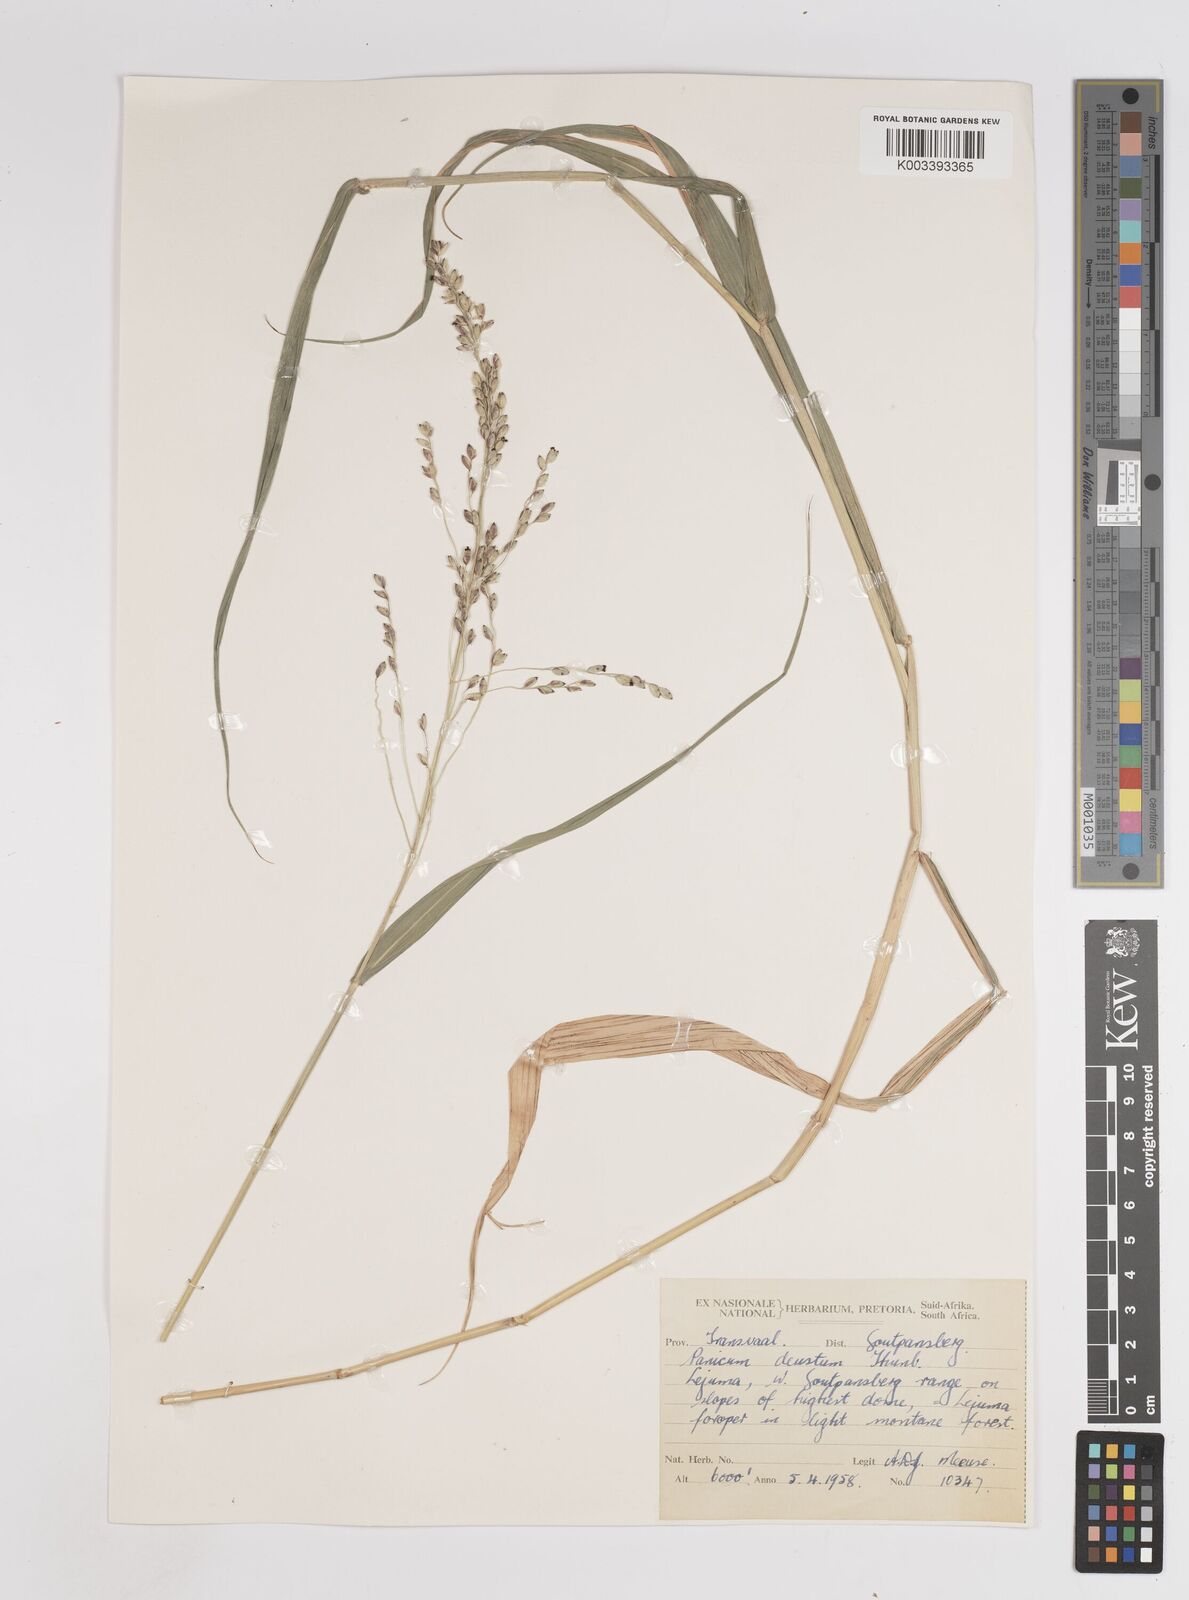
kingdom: Plantae
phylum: Tracheophyta
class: Liliopsida
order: Poales
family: Poaceae
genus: Panicum
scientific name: Panicum deustum
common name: Reed panicum
